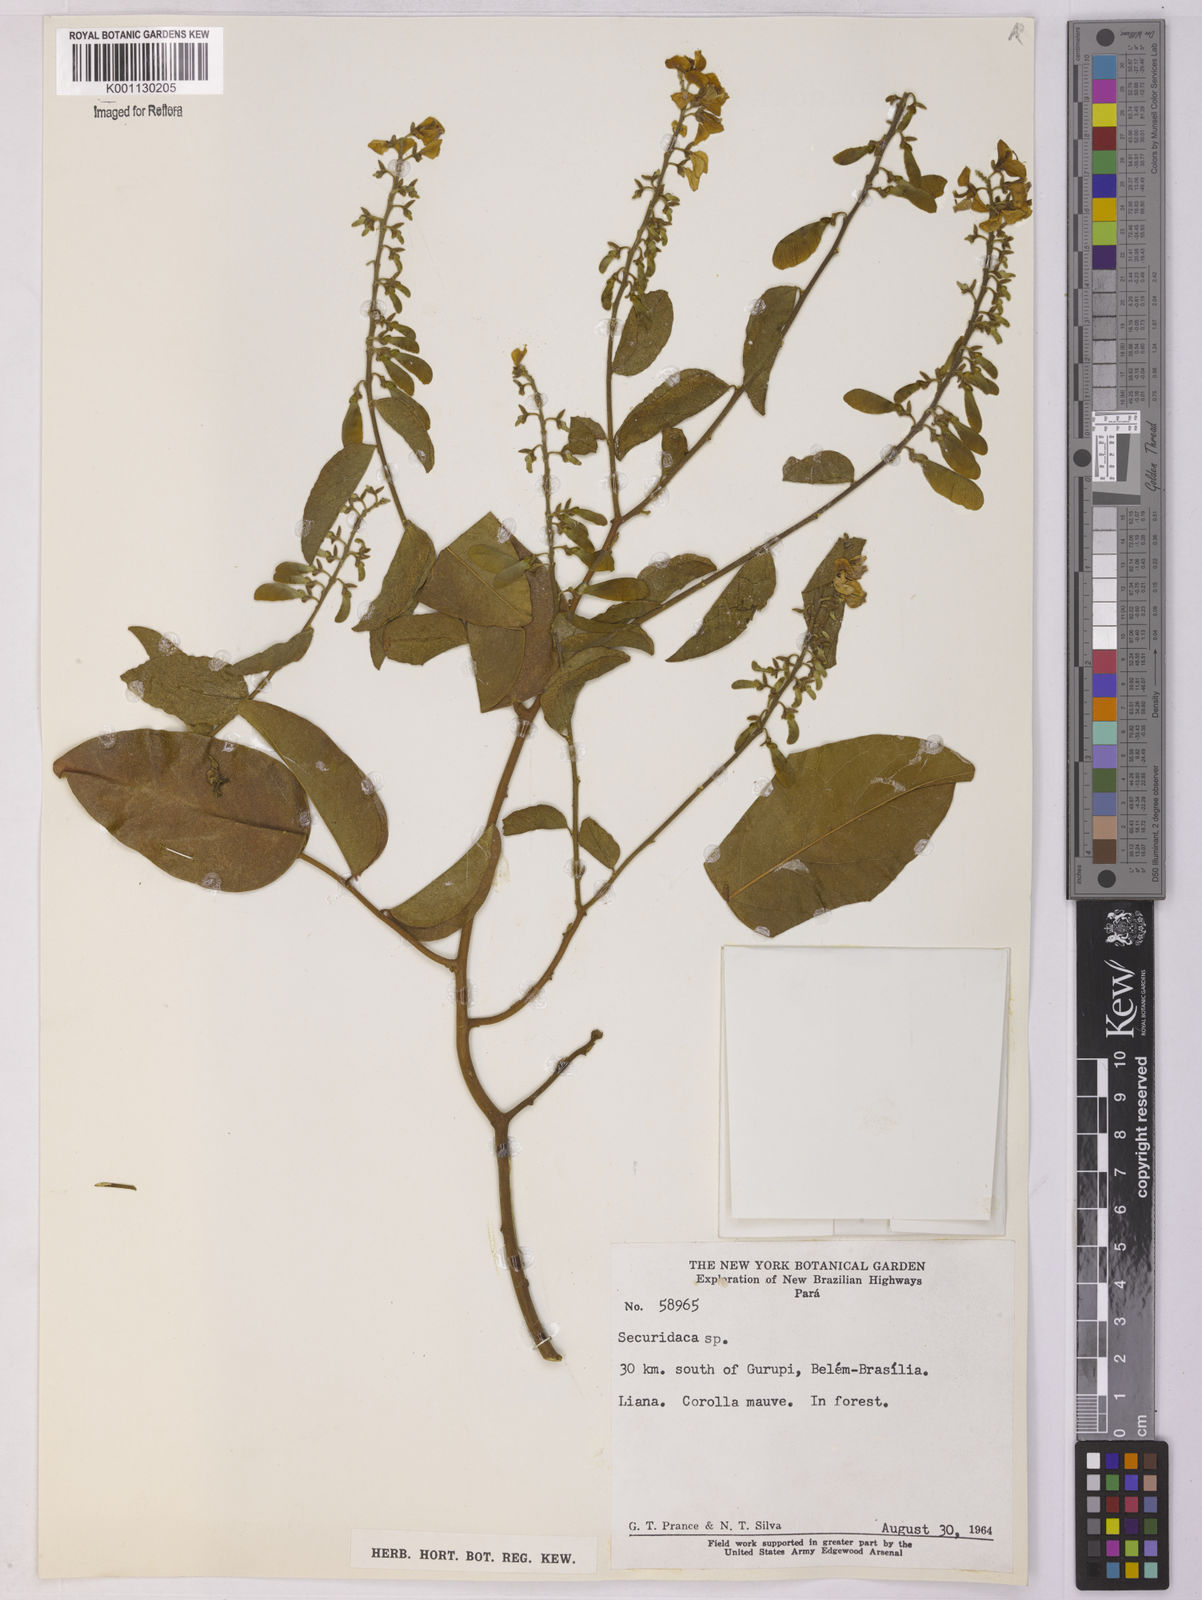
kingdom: Plantae
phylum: Tracheophyta
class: Magnoliopsida
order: Fabales
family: Polygalaceae
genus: Securidaca
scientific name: Securidaca
